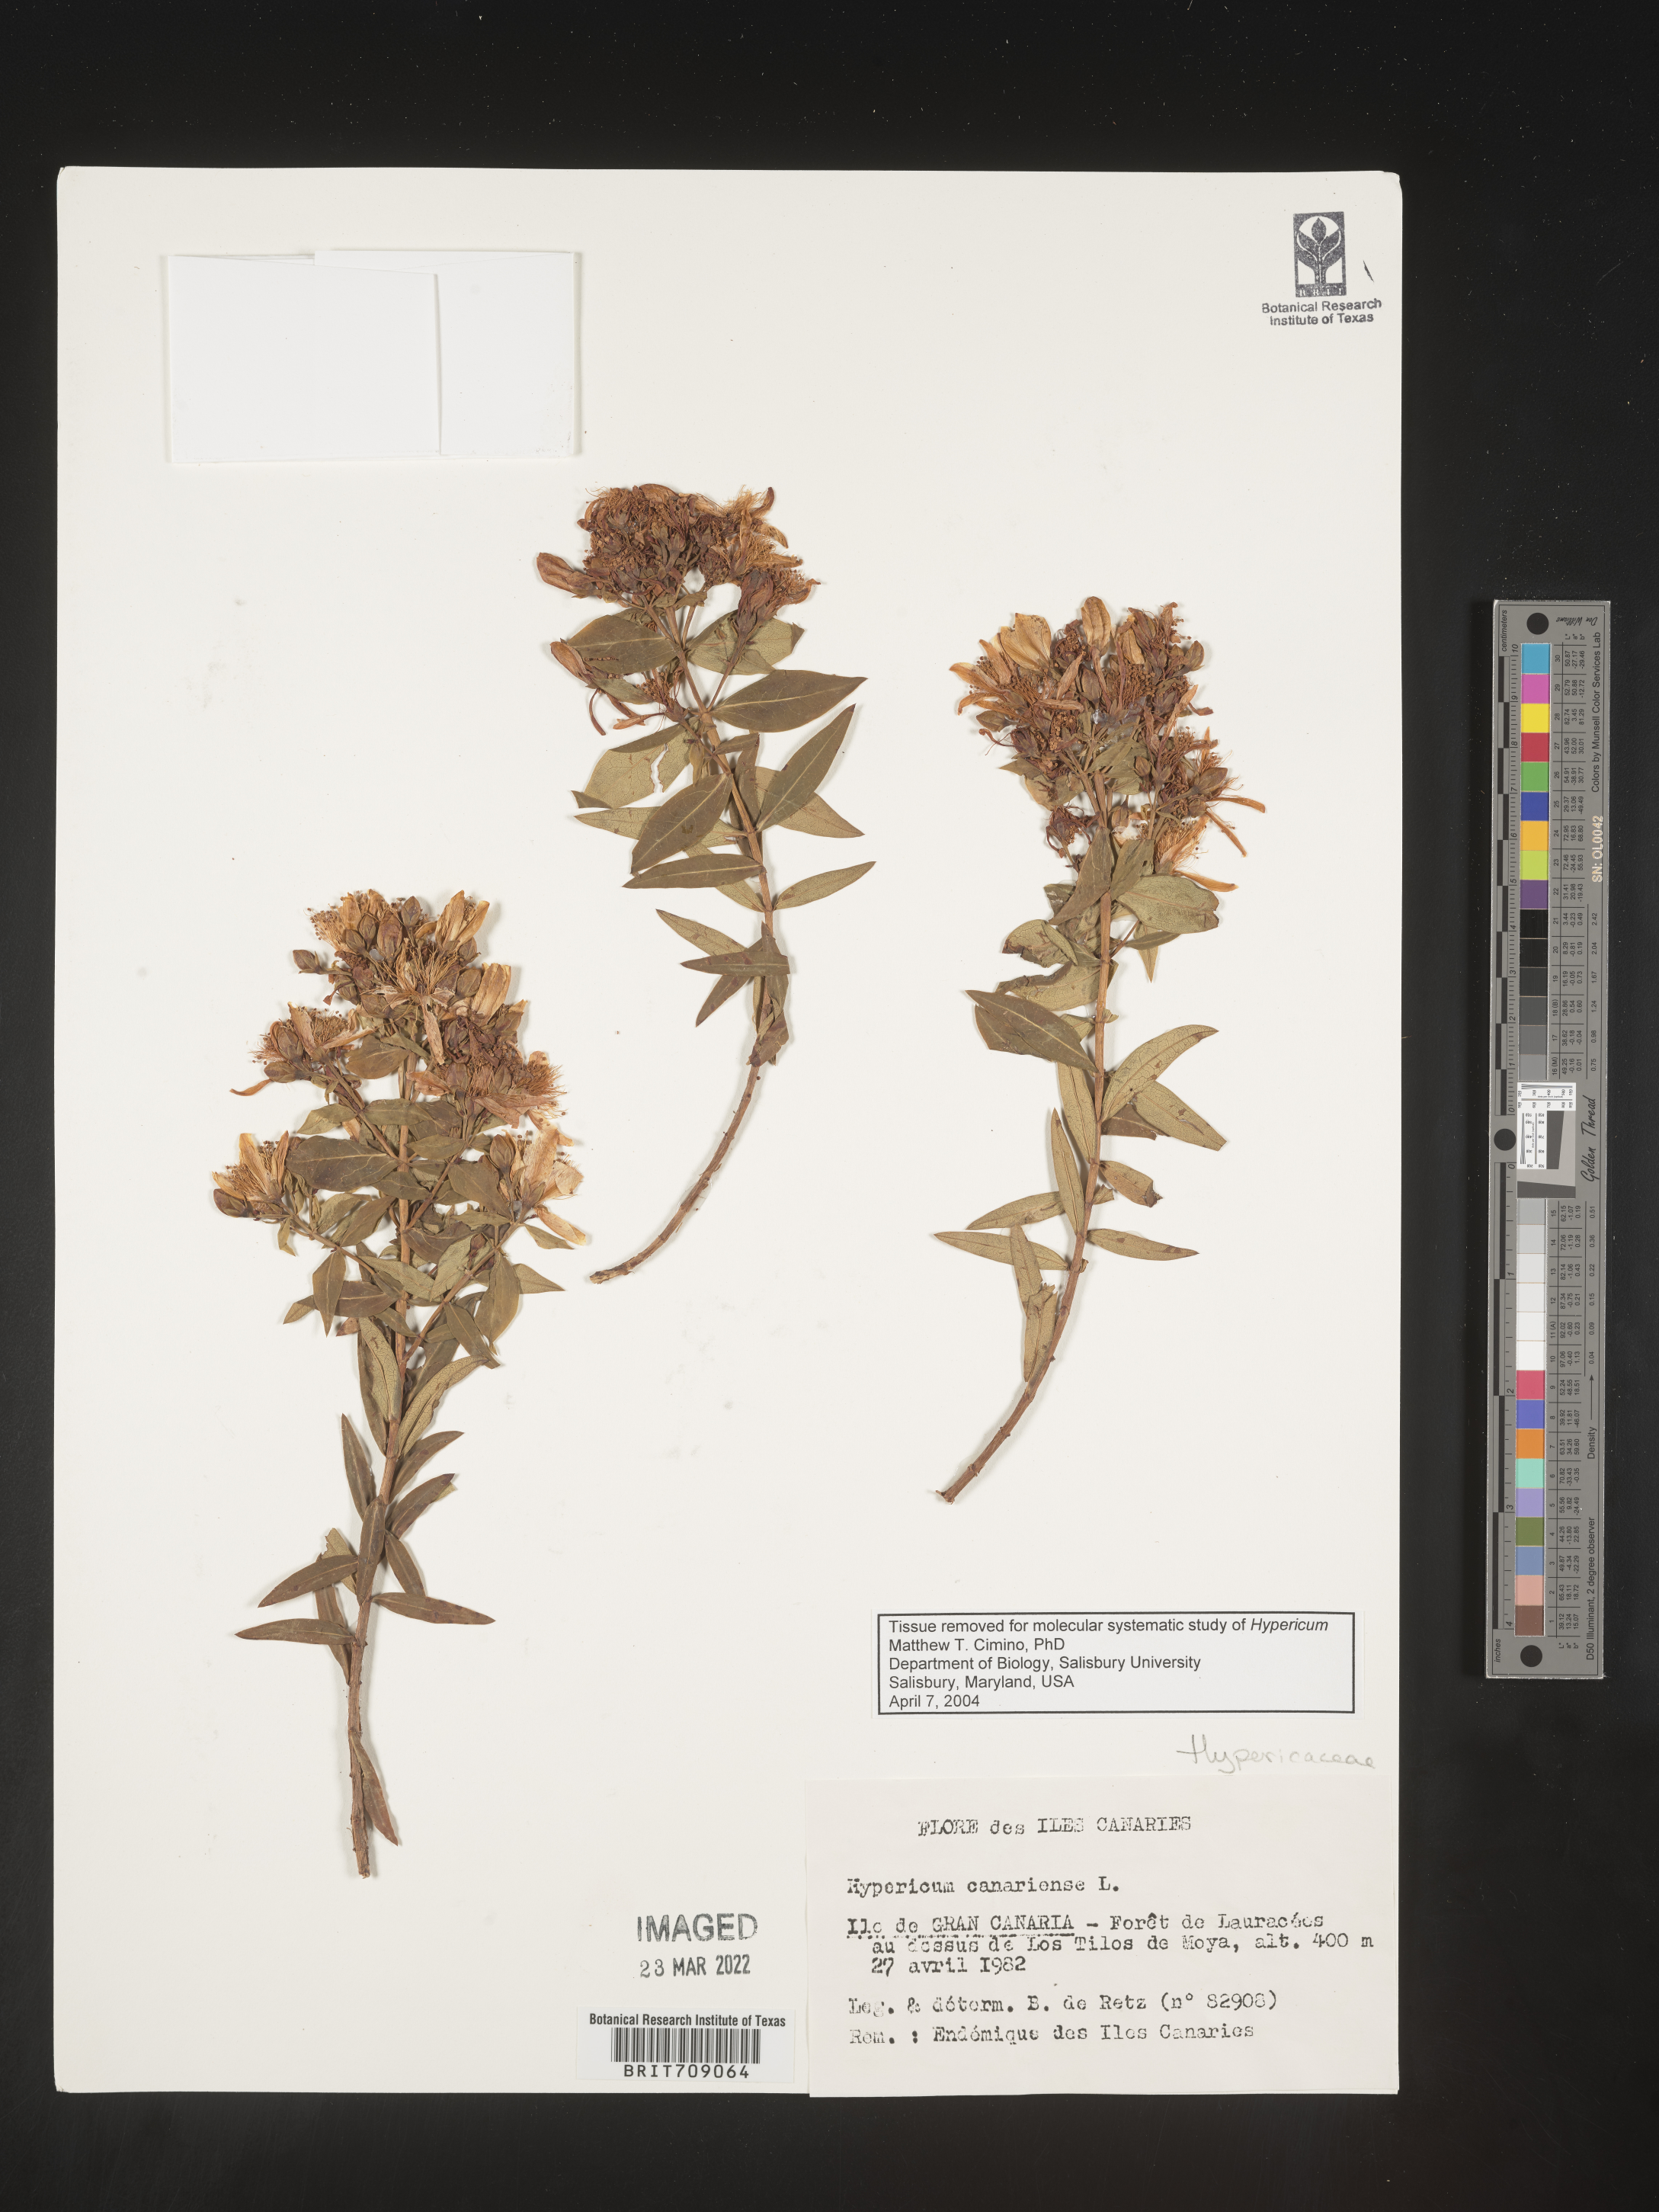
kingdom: Plantae
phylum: Tracheophyta
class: Magnoliopsida
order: Malpighiales
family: Hypericaceae
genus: Hypericum
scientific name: Hypericum
